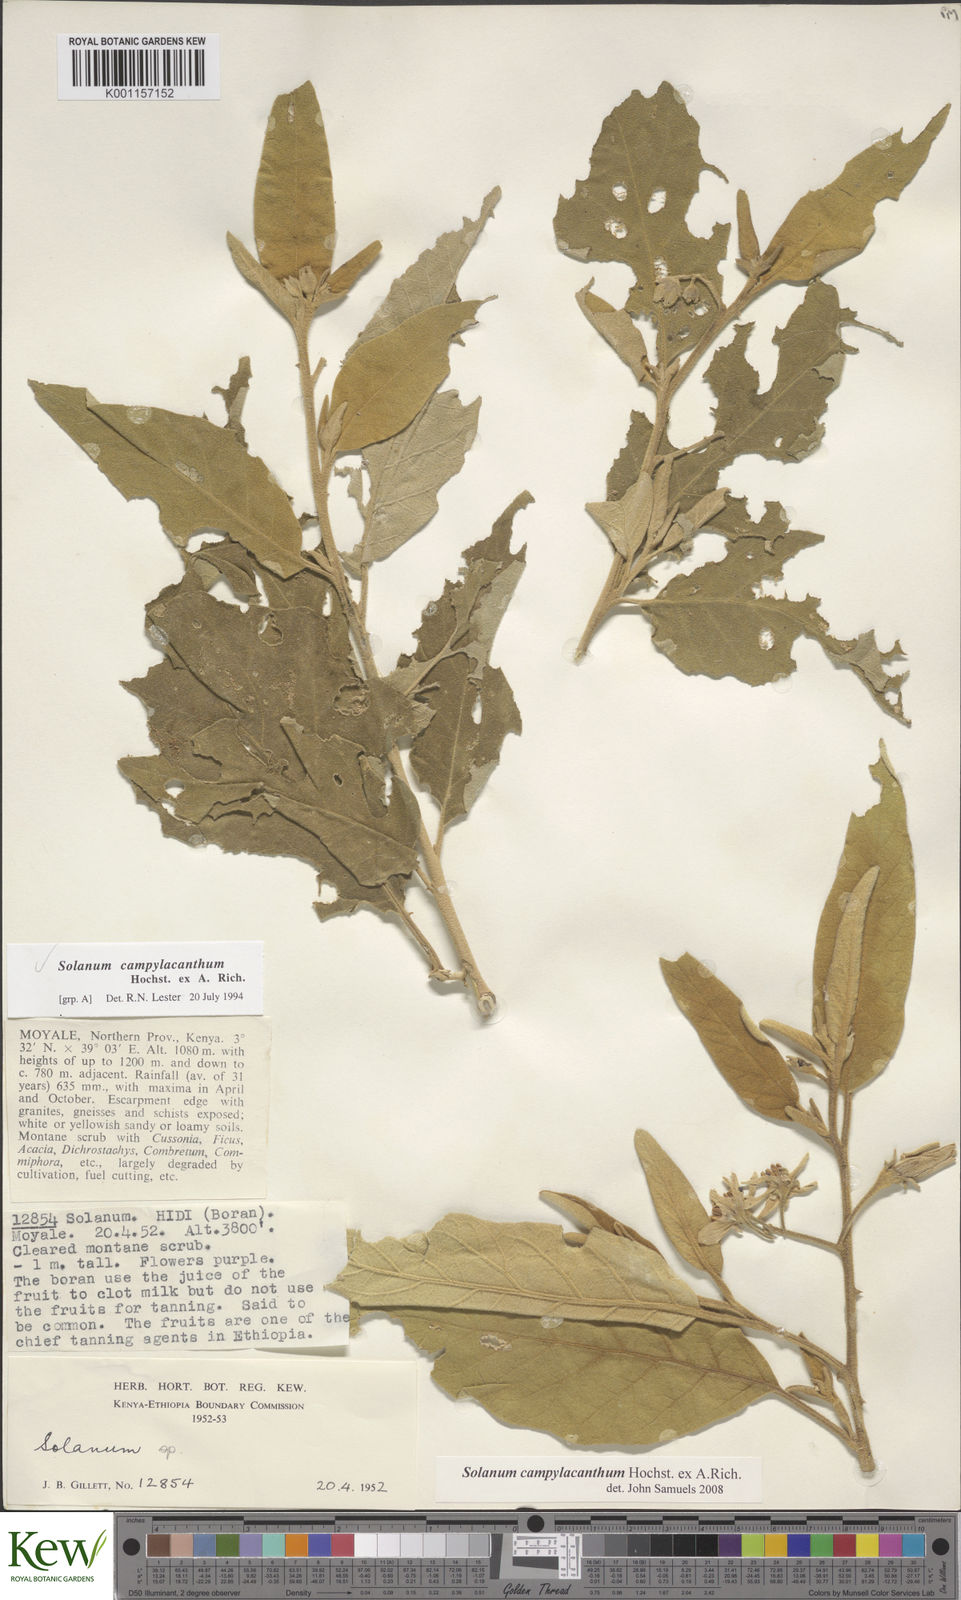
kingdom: Plantae
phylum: Tracheophyta
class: Magnoliopsida
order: Solanales
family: Solanaceae
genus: Solanum
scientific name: Solanum campylacanthum
